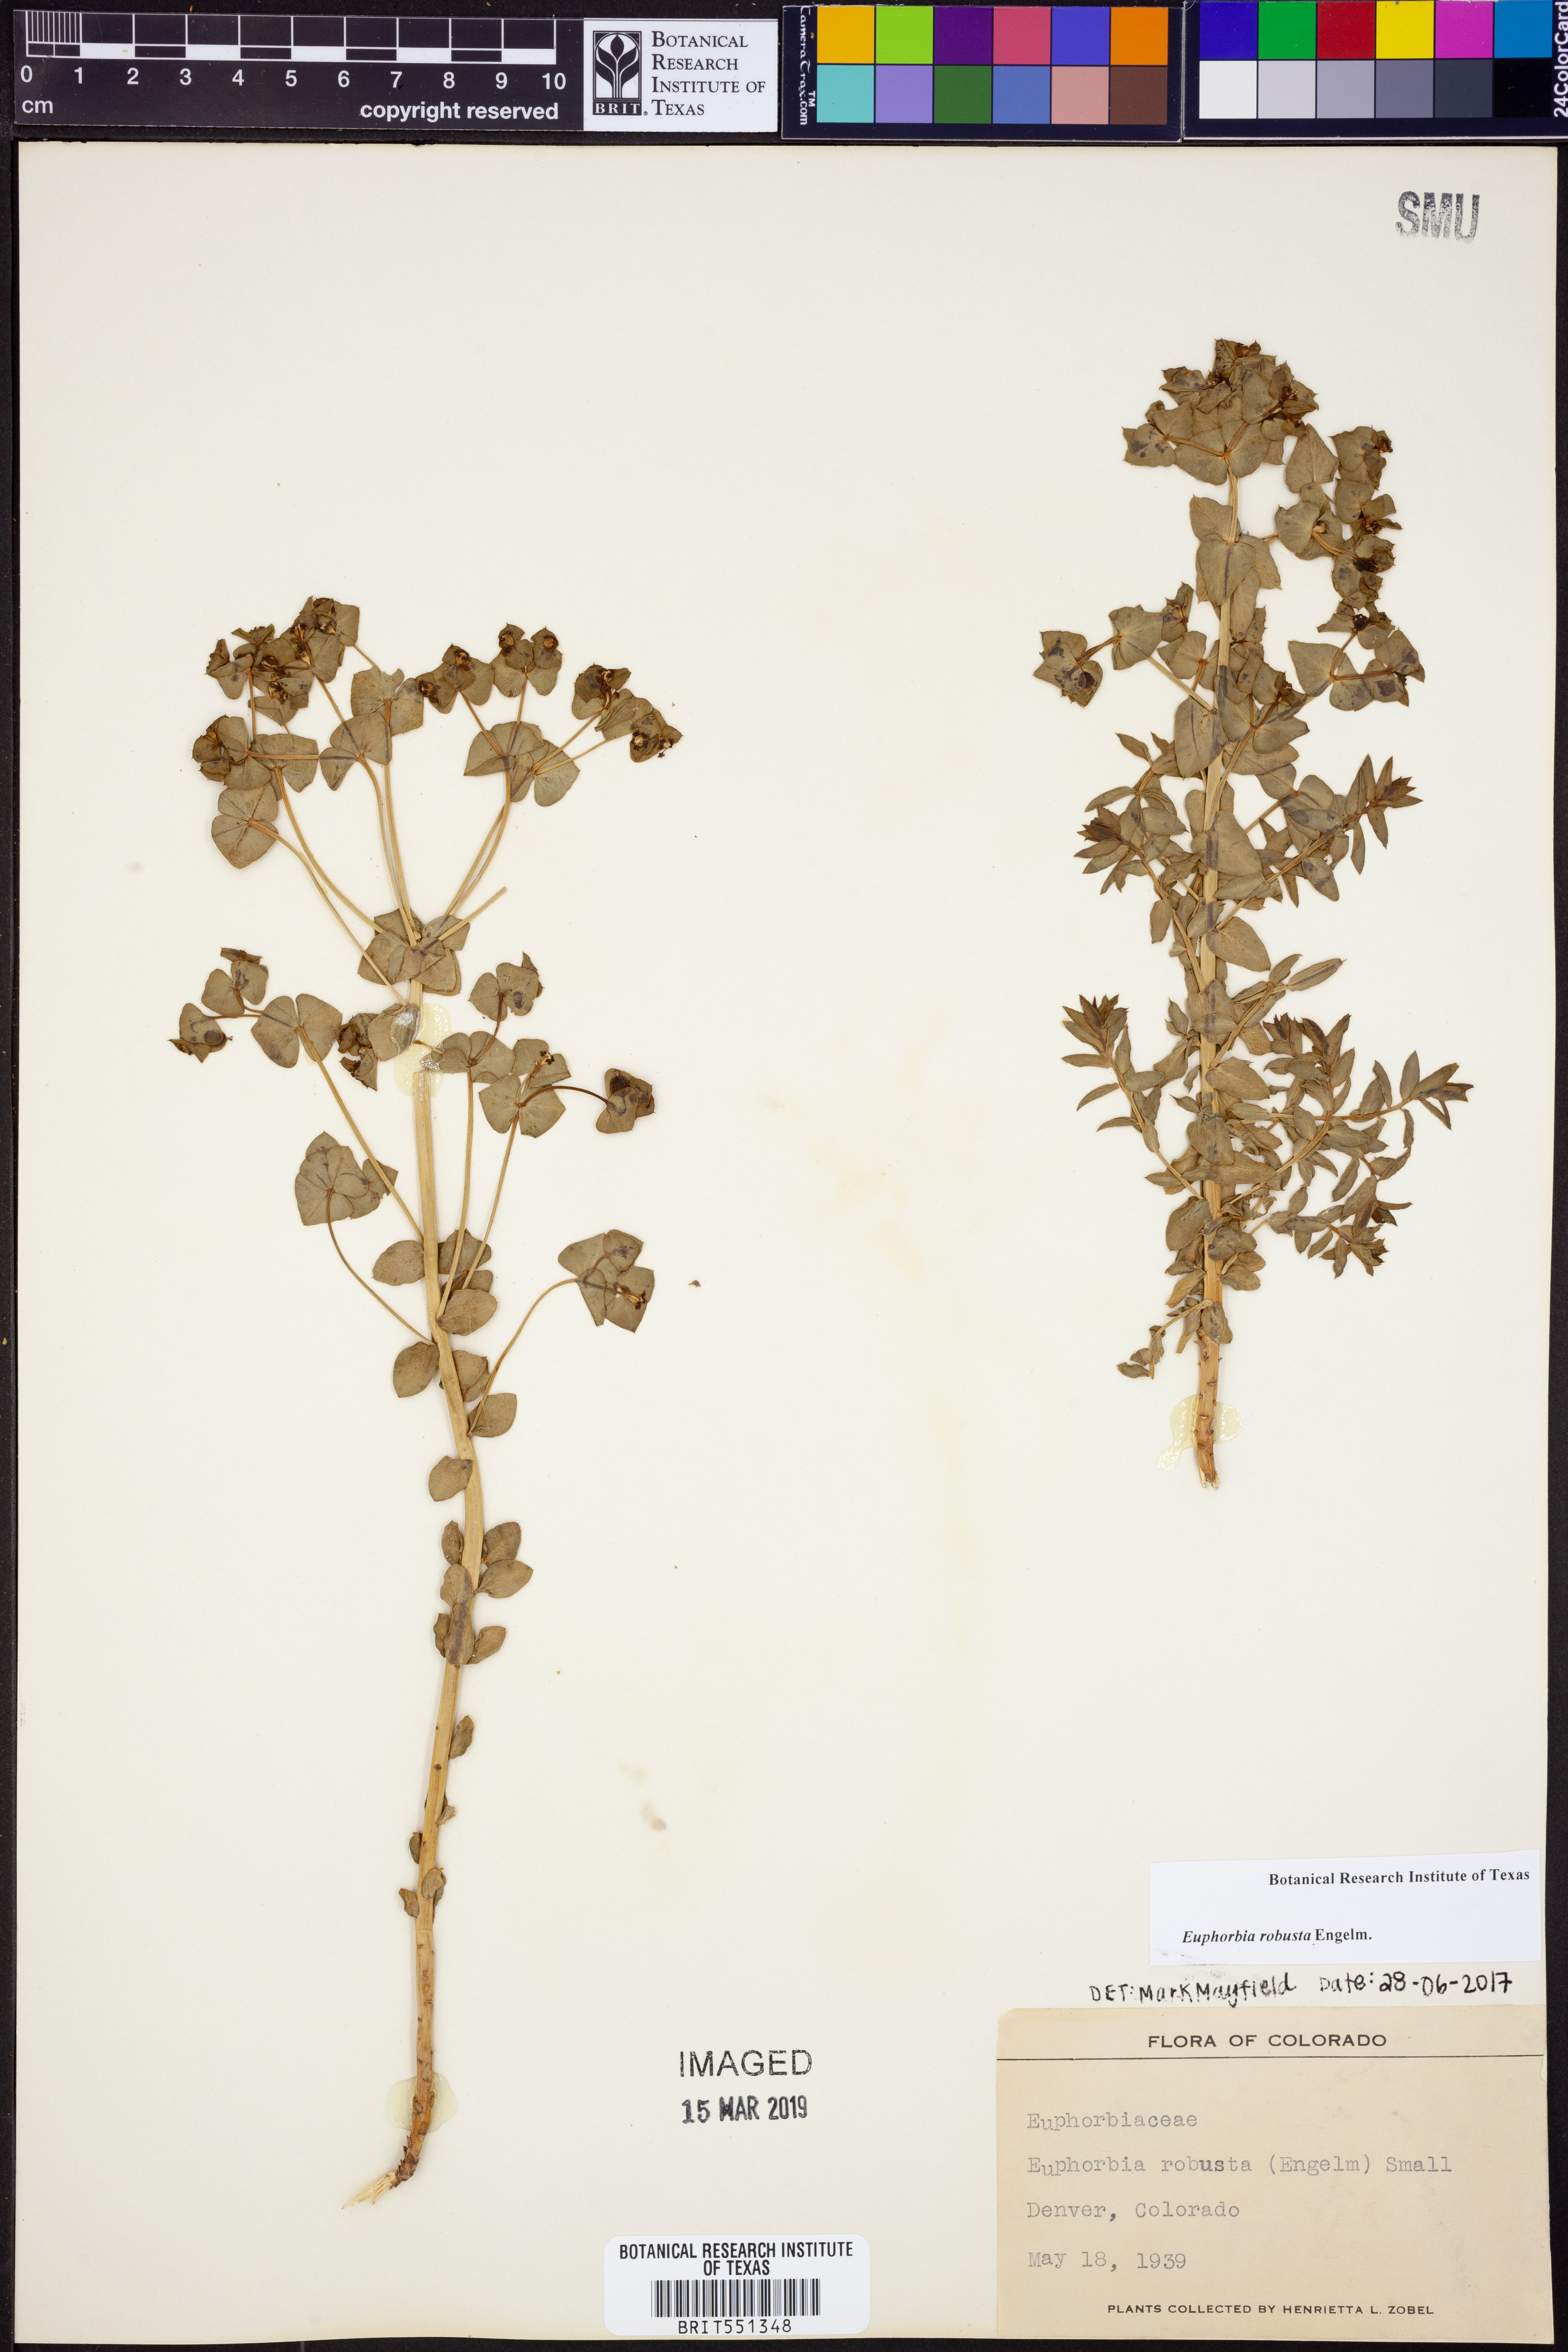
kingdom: Plantae
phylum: Tracheophyta
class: Magnoliopsida
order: Malpighiales
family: Euphorbiaceae
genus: Euphorbia
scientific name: Euphorbia brachycera
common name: Shorthorn spurge
